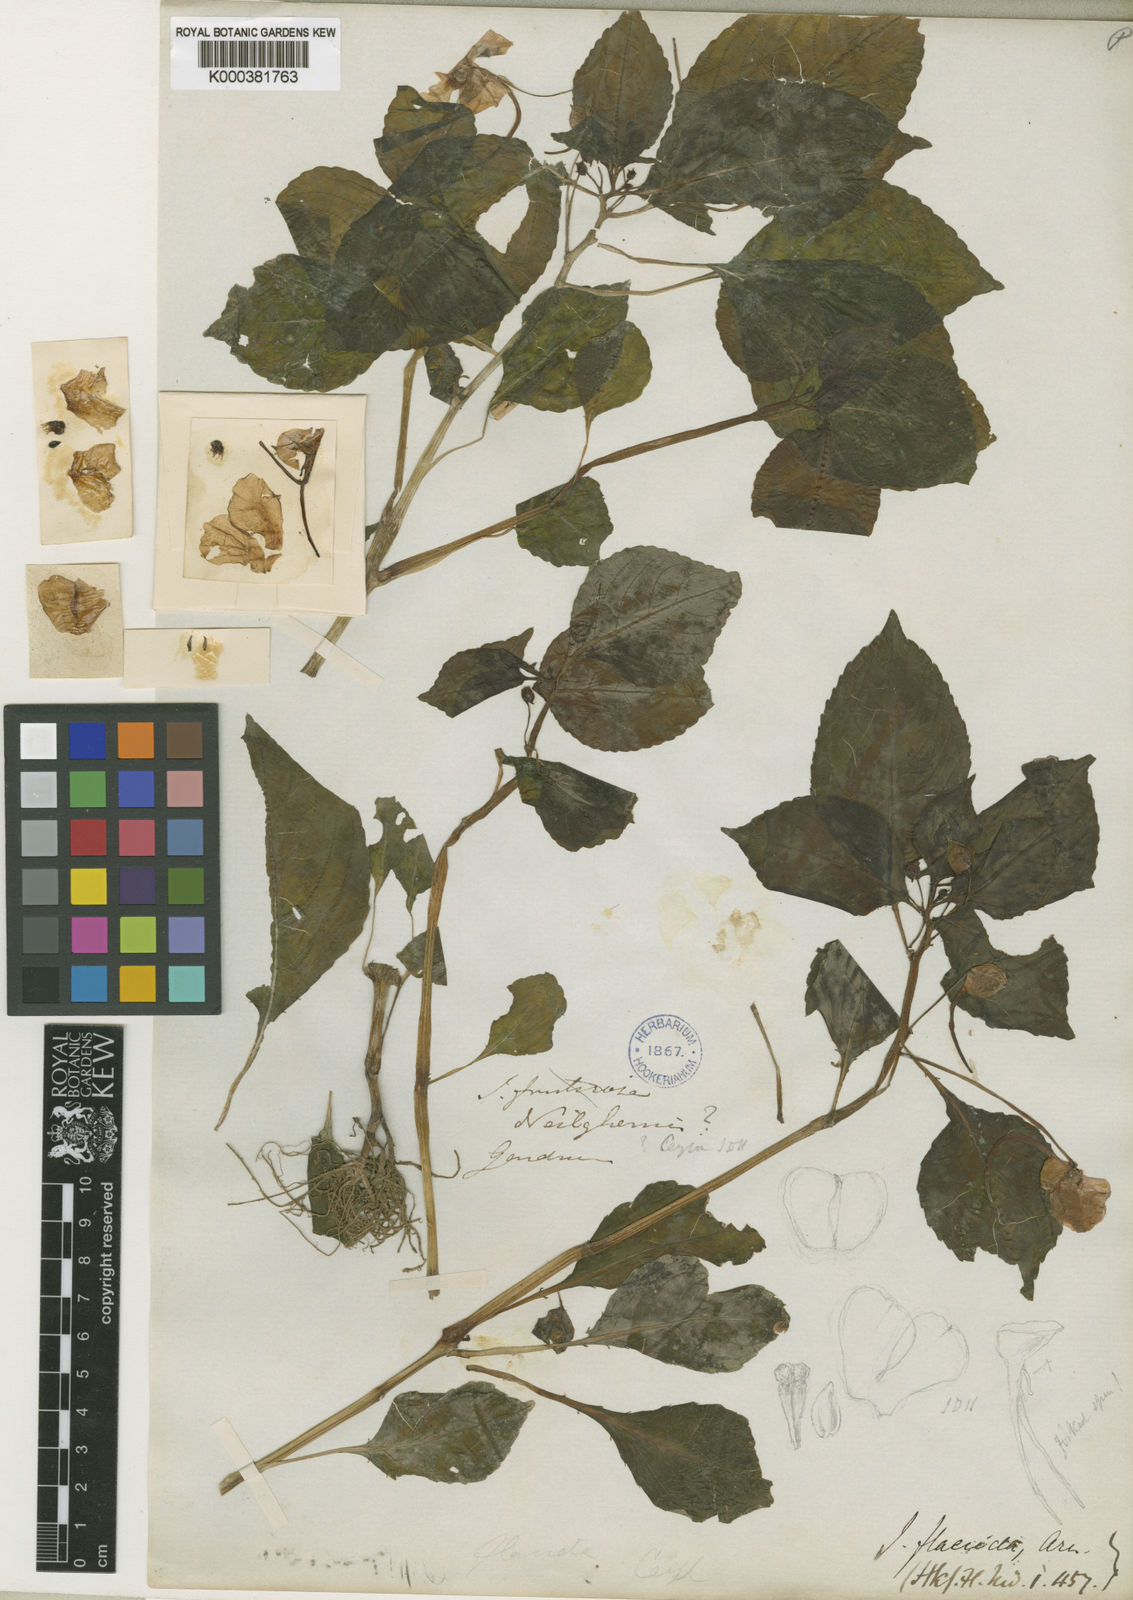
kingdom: Plantae
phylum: Tracheophyta
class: Magnoliopsida
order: Ericales
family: Balsaminaceae
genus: Impatiens
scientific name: Impatiens flaccida
